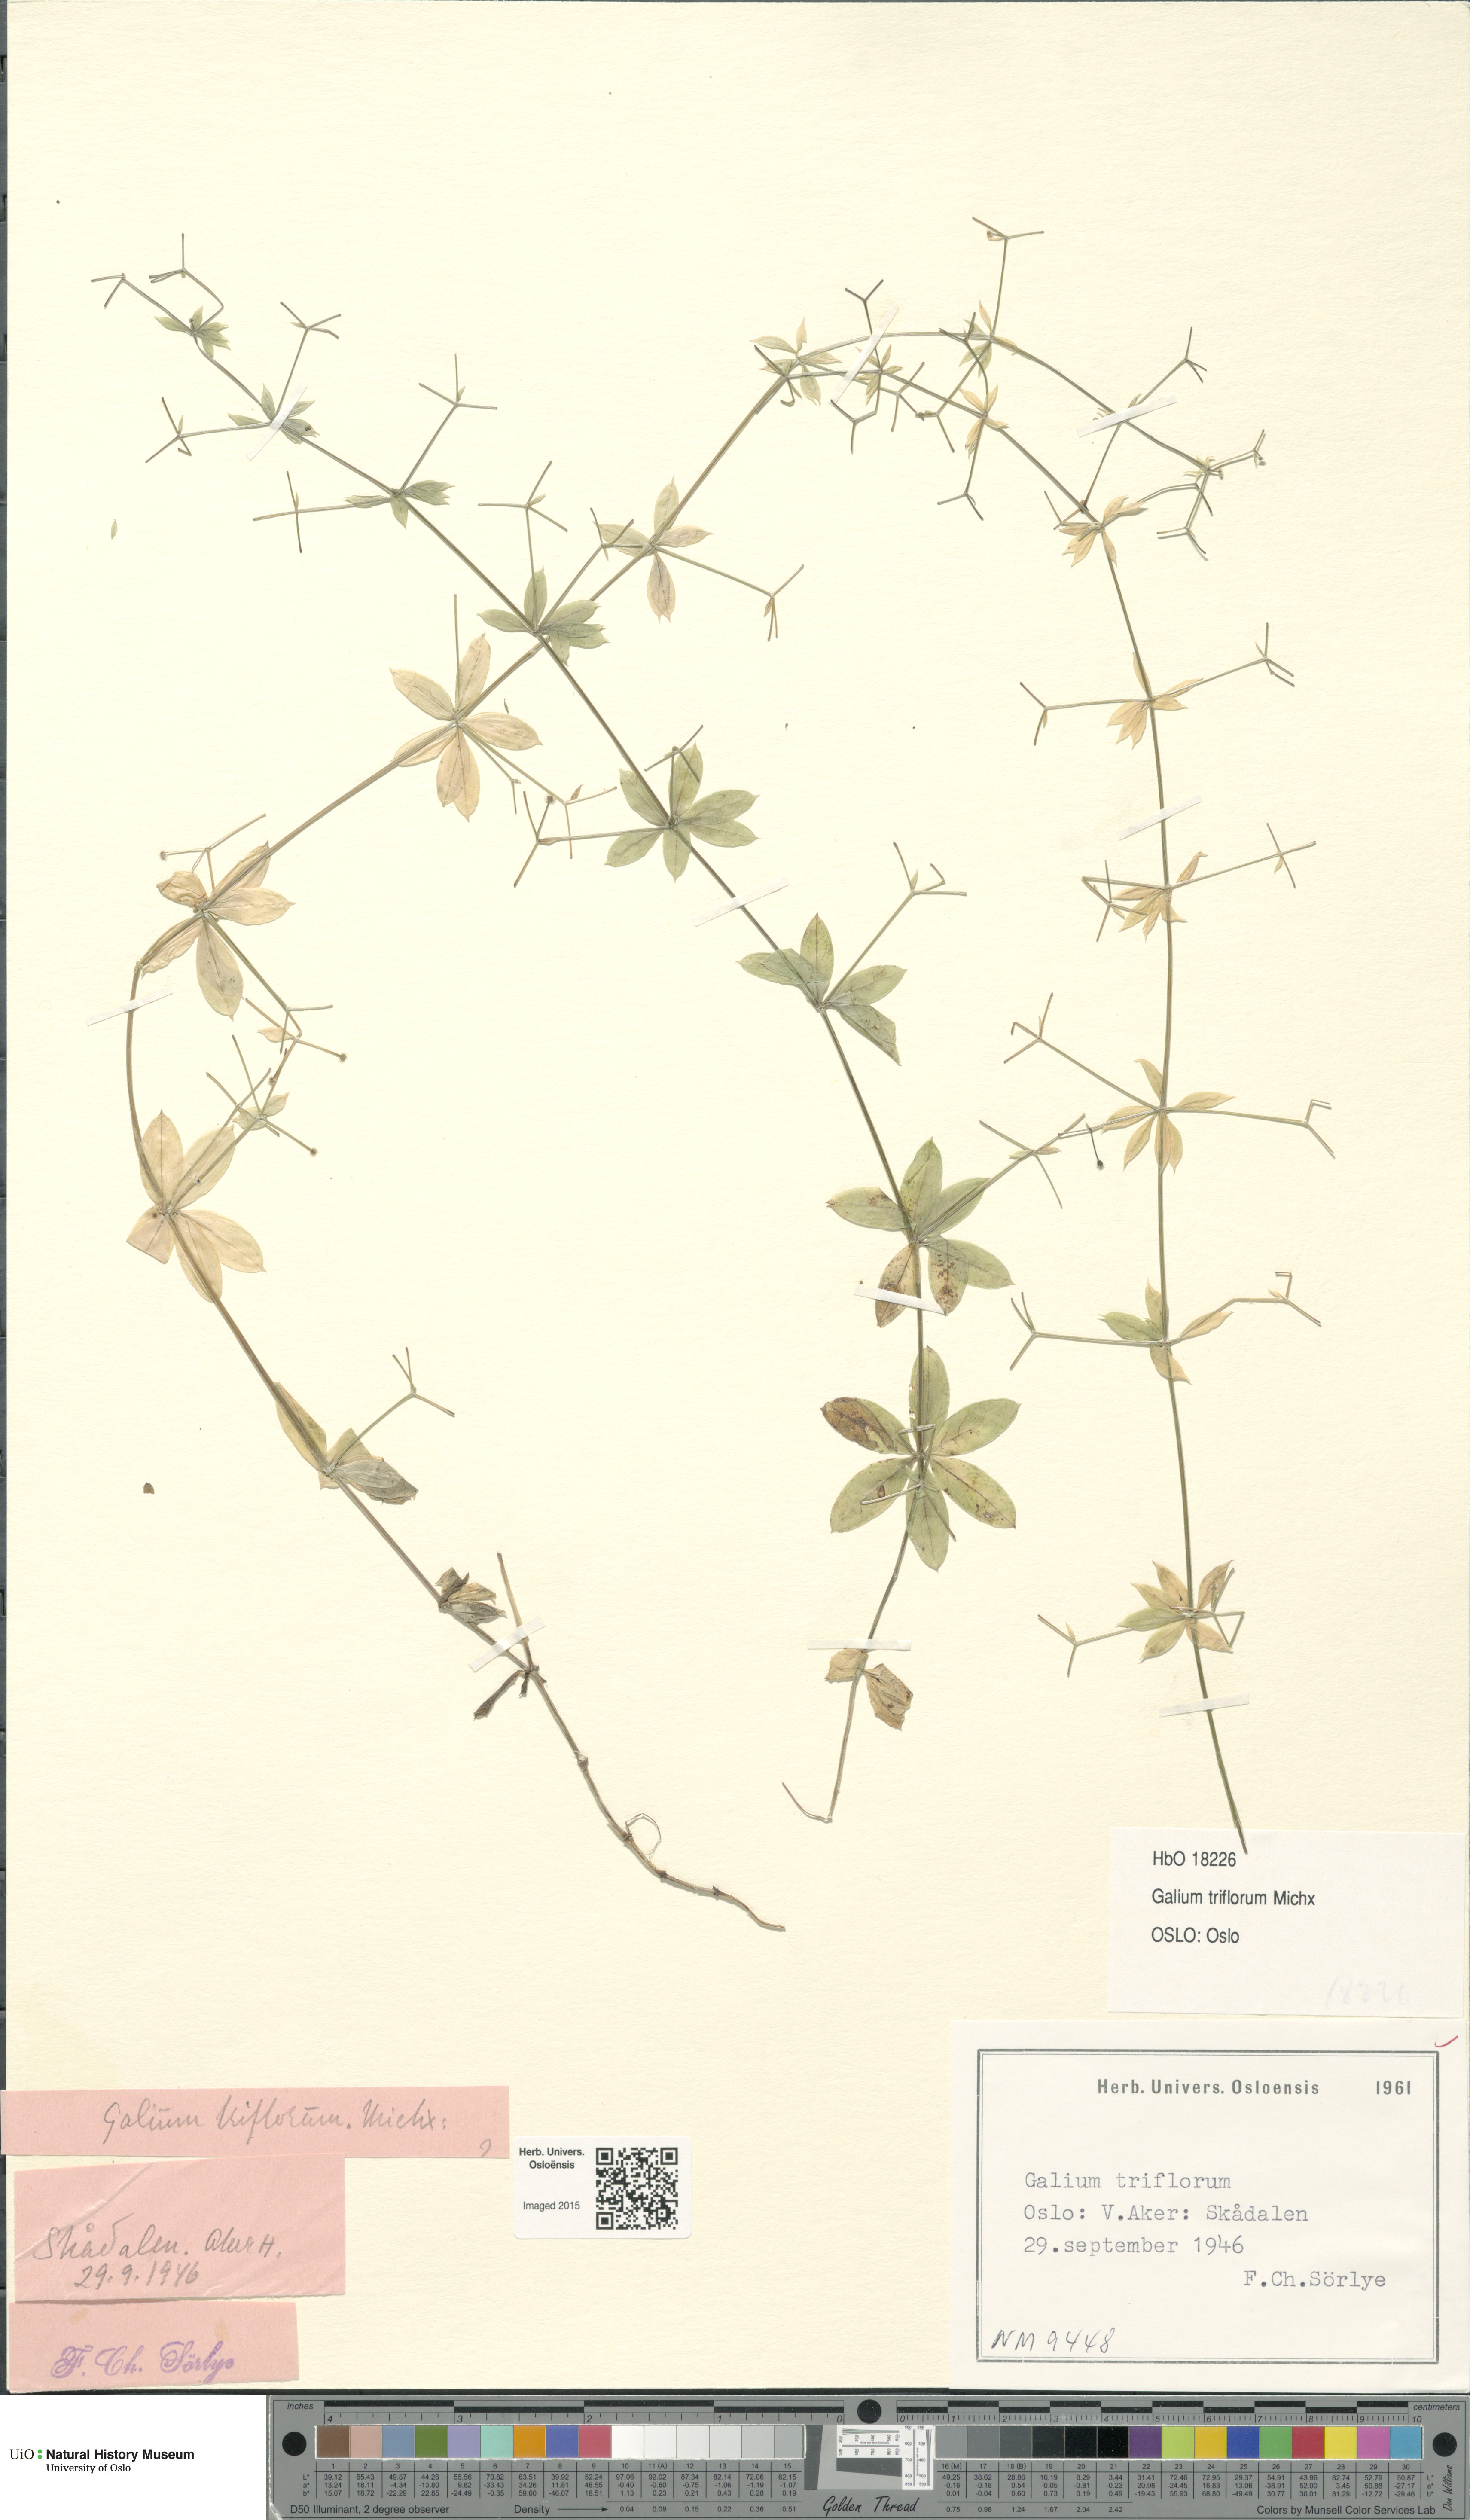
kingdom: Plantae
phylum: Tracheophyta
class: Magnoliopsida
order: Gentianales
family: Rubiaceae
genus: Galium
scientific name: Galium triflorum
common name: Fragrant bedstraw
